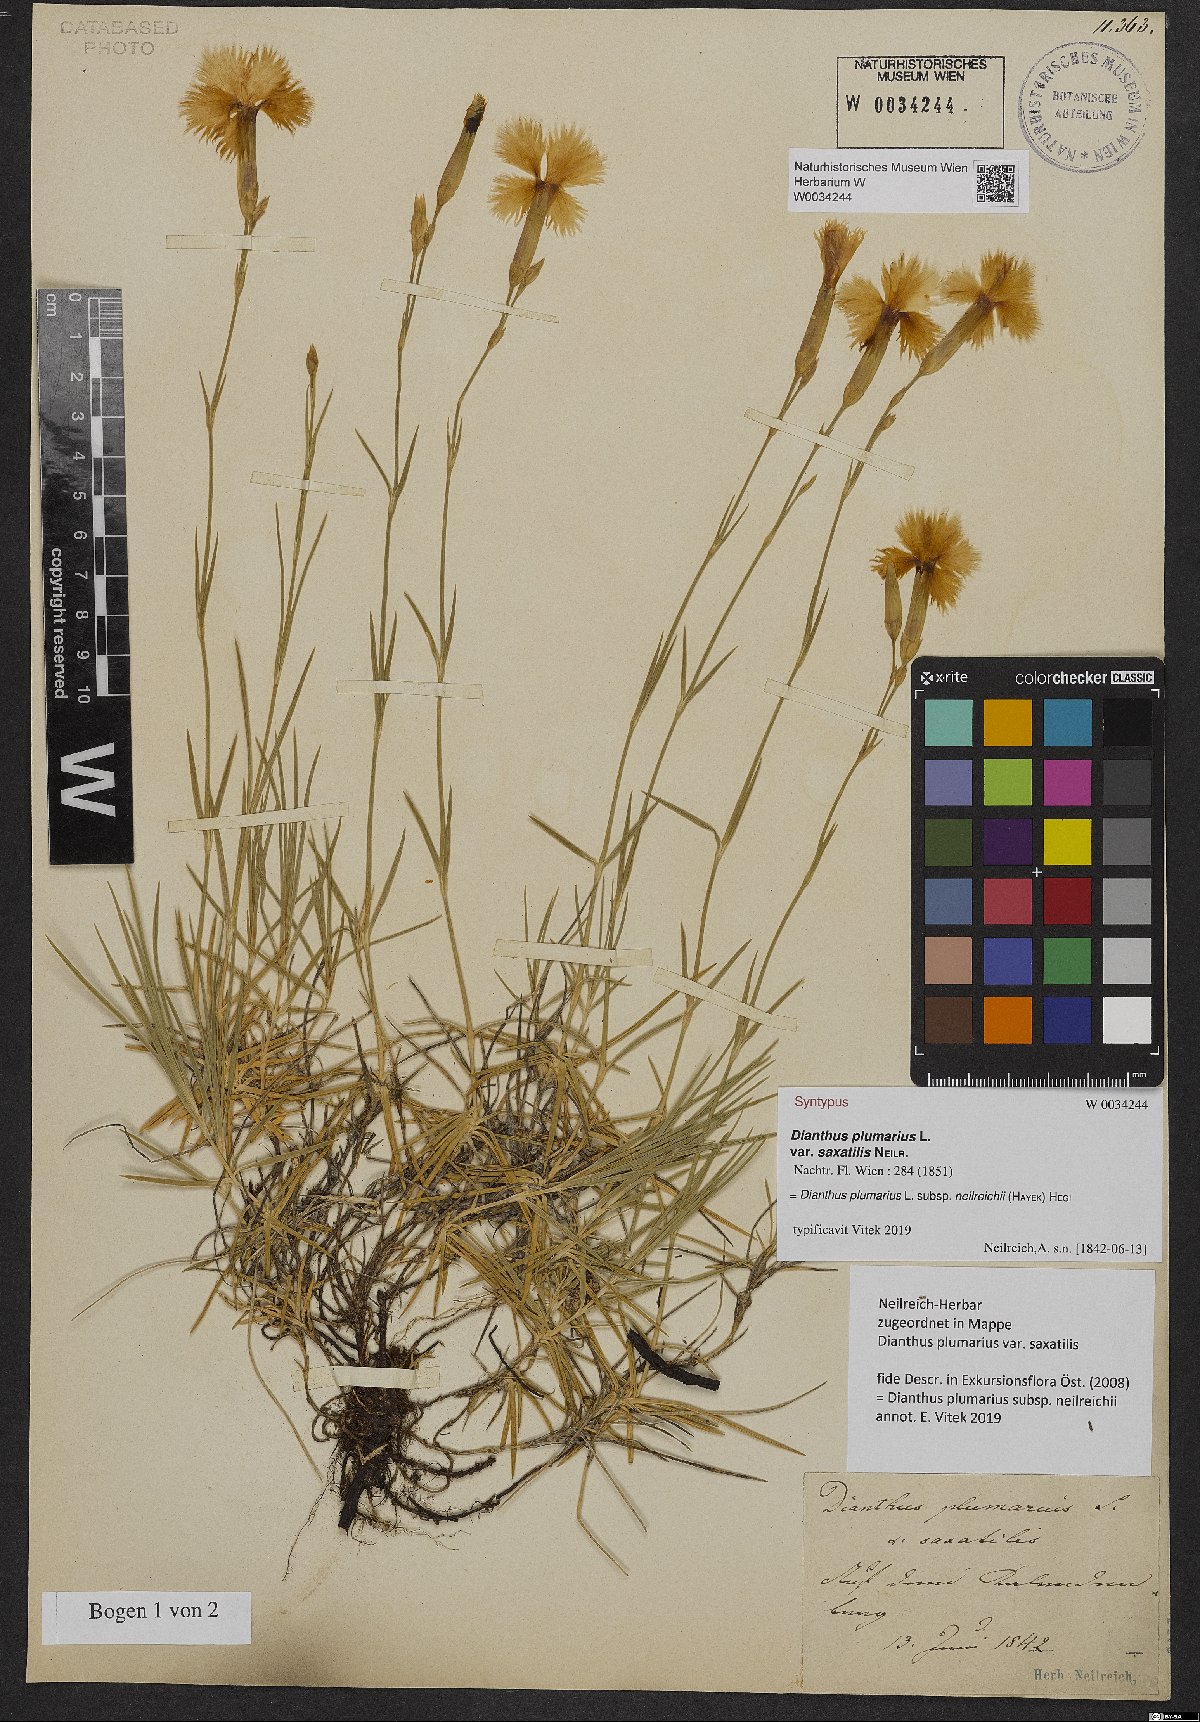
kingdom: Plantae
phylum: Tracheophyta
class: Magnoliopsida
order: Caryophyllales
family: Caryophyllaceae
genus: Dianthus
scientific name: Dianthus plumarius
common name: Pink
